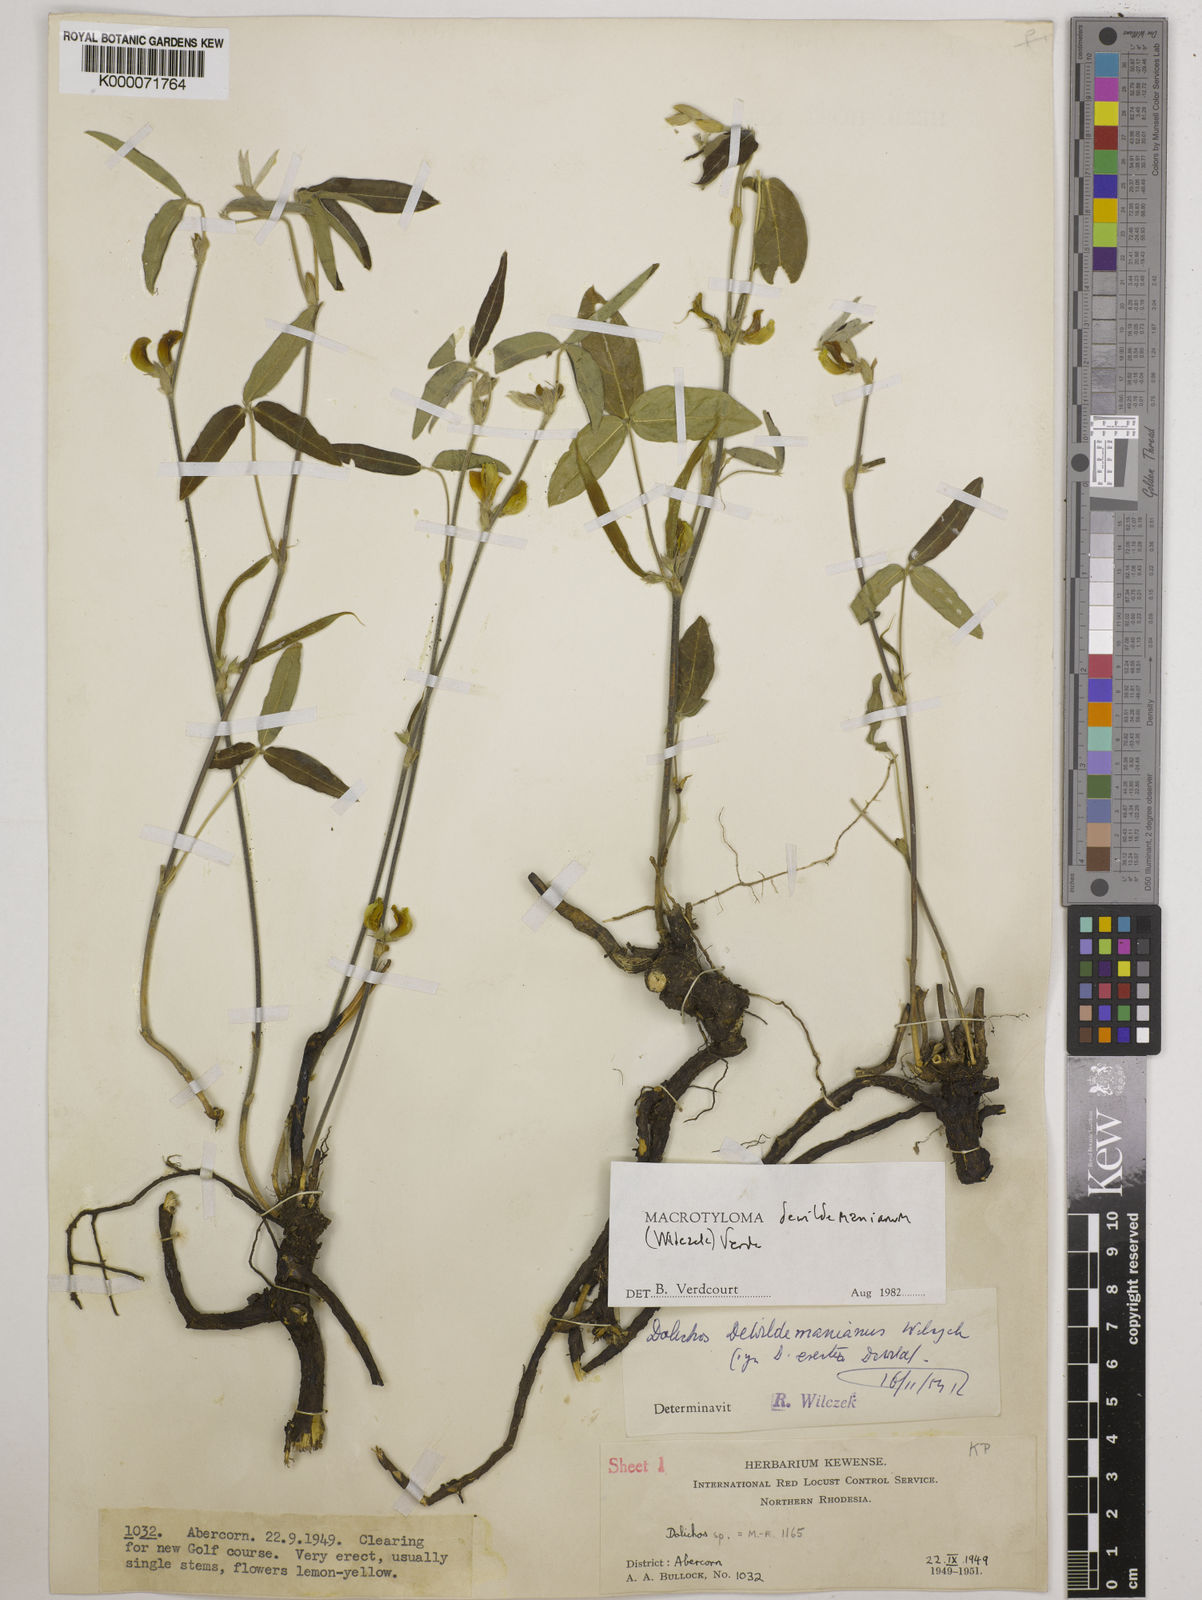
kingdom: Plantae
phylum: Tracheophyta
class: Magnoliopsida
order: Fabales
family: Fabaceae
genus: Macrotyloma
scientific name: Macrotyloma dewildemanianum
